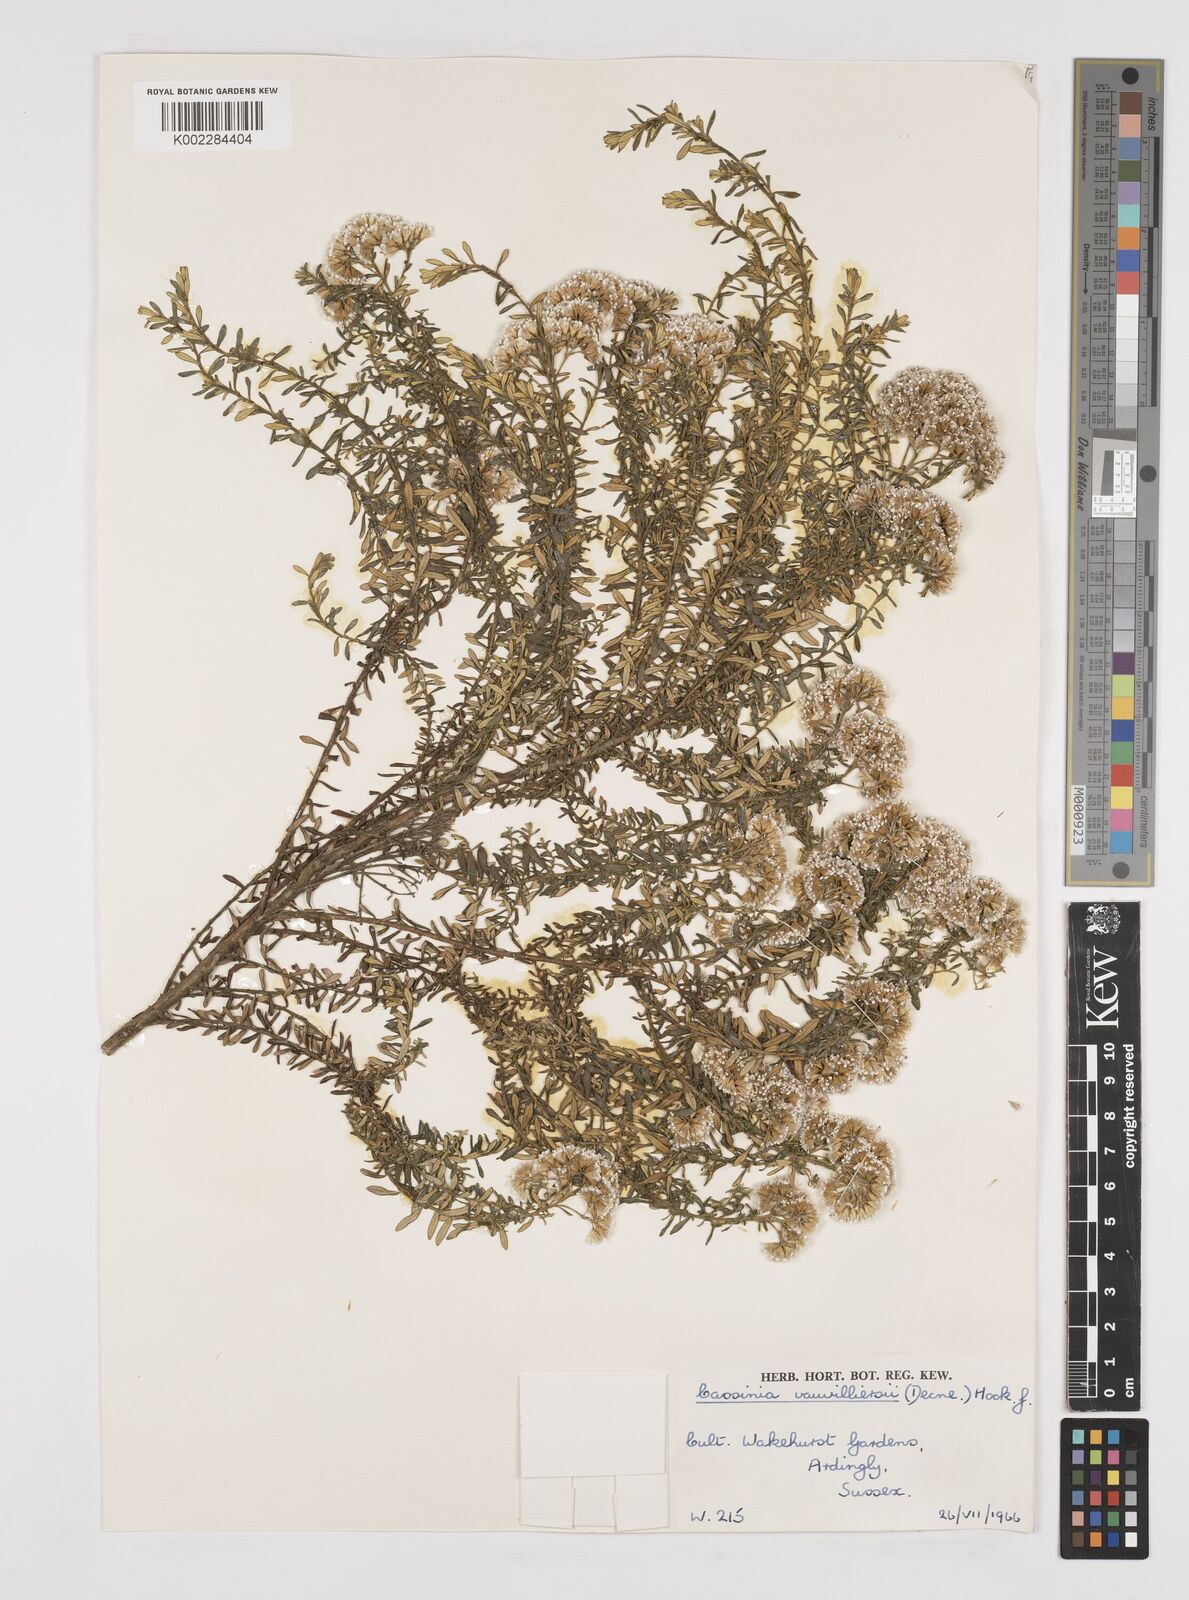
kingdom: Plantae
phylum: Tracheophyta
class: Magnoliopsida
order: Asterales
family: Asteraceae
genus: Ozothamnus
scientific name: Ozothamnus leptophyllus
